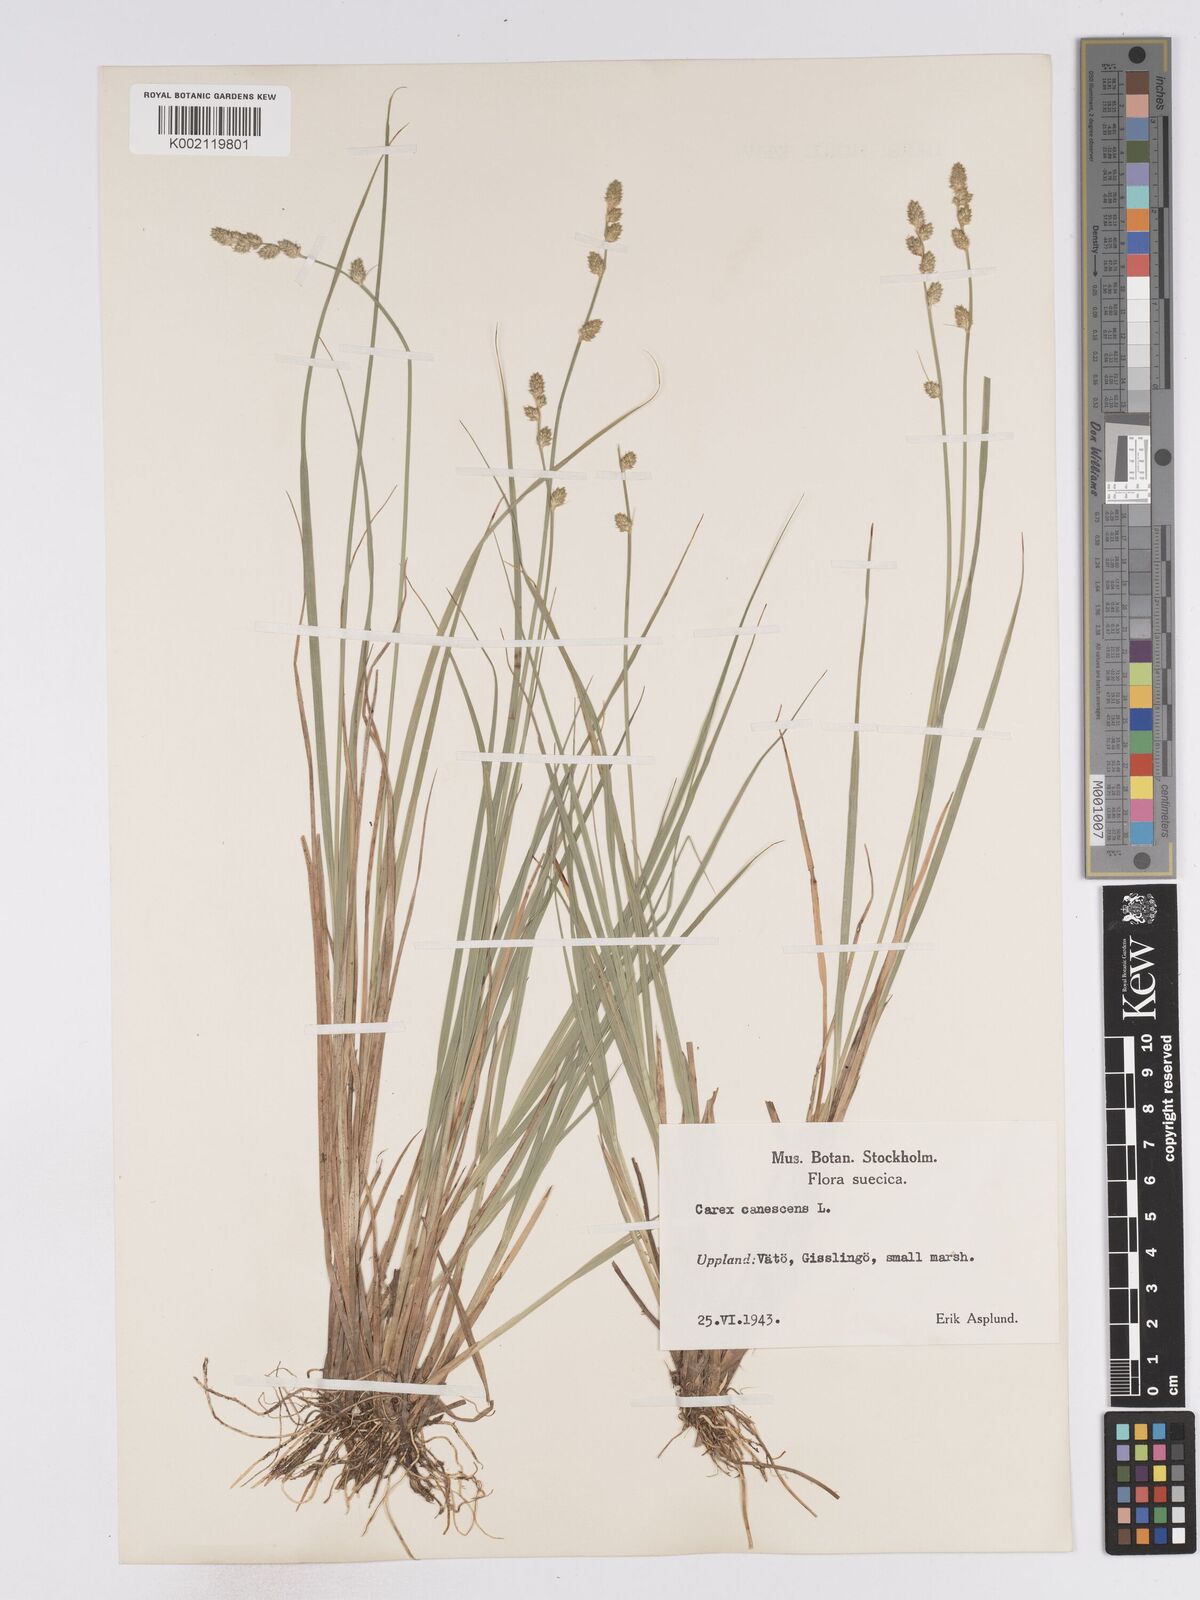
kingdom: Plantae
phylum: Tracheophyta
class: Liliopsida
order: Poales
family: Cyperaceae
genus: Carex
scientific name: Carex curta
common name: White sedge
